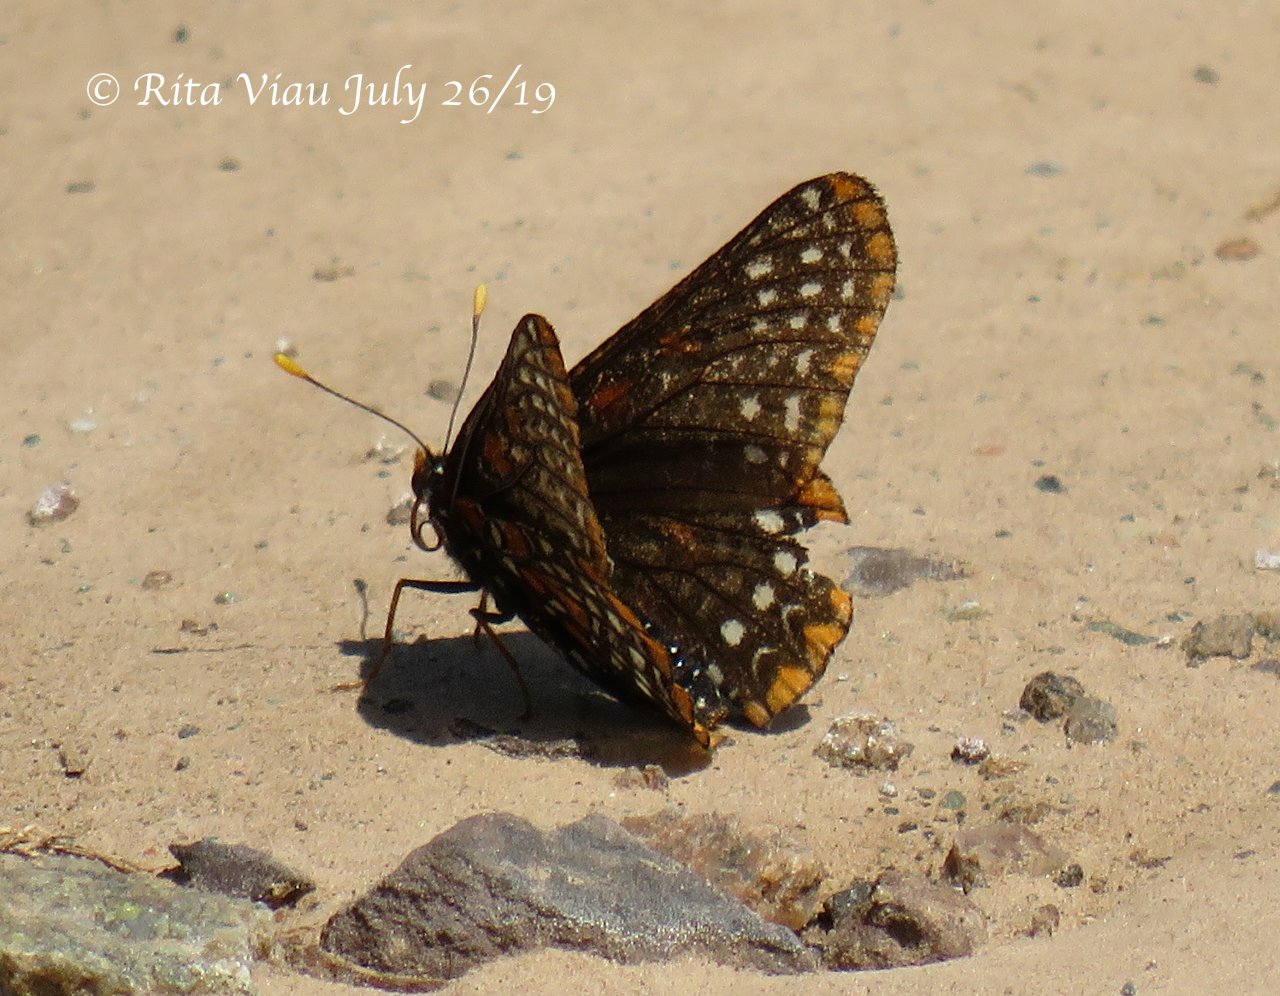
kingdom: Animalia
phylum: Arthropoda
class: Insecta
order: Lepidoptera
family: Nymphalidae
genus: Euphydryas
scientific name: Euphydryas phaeton
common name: Baltimore Checkerspot
